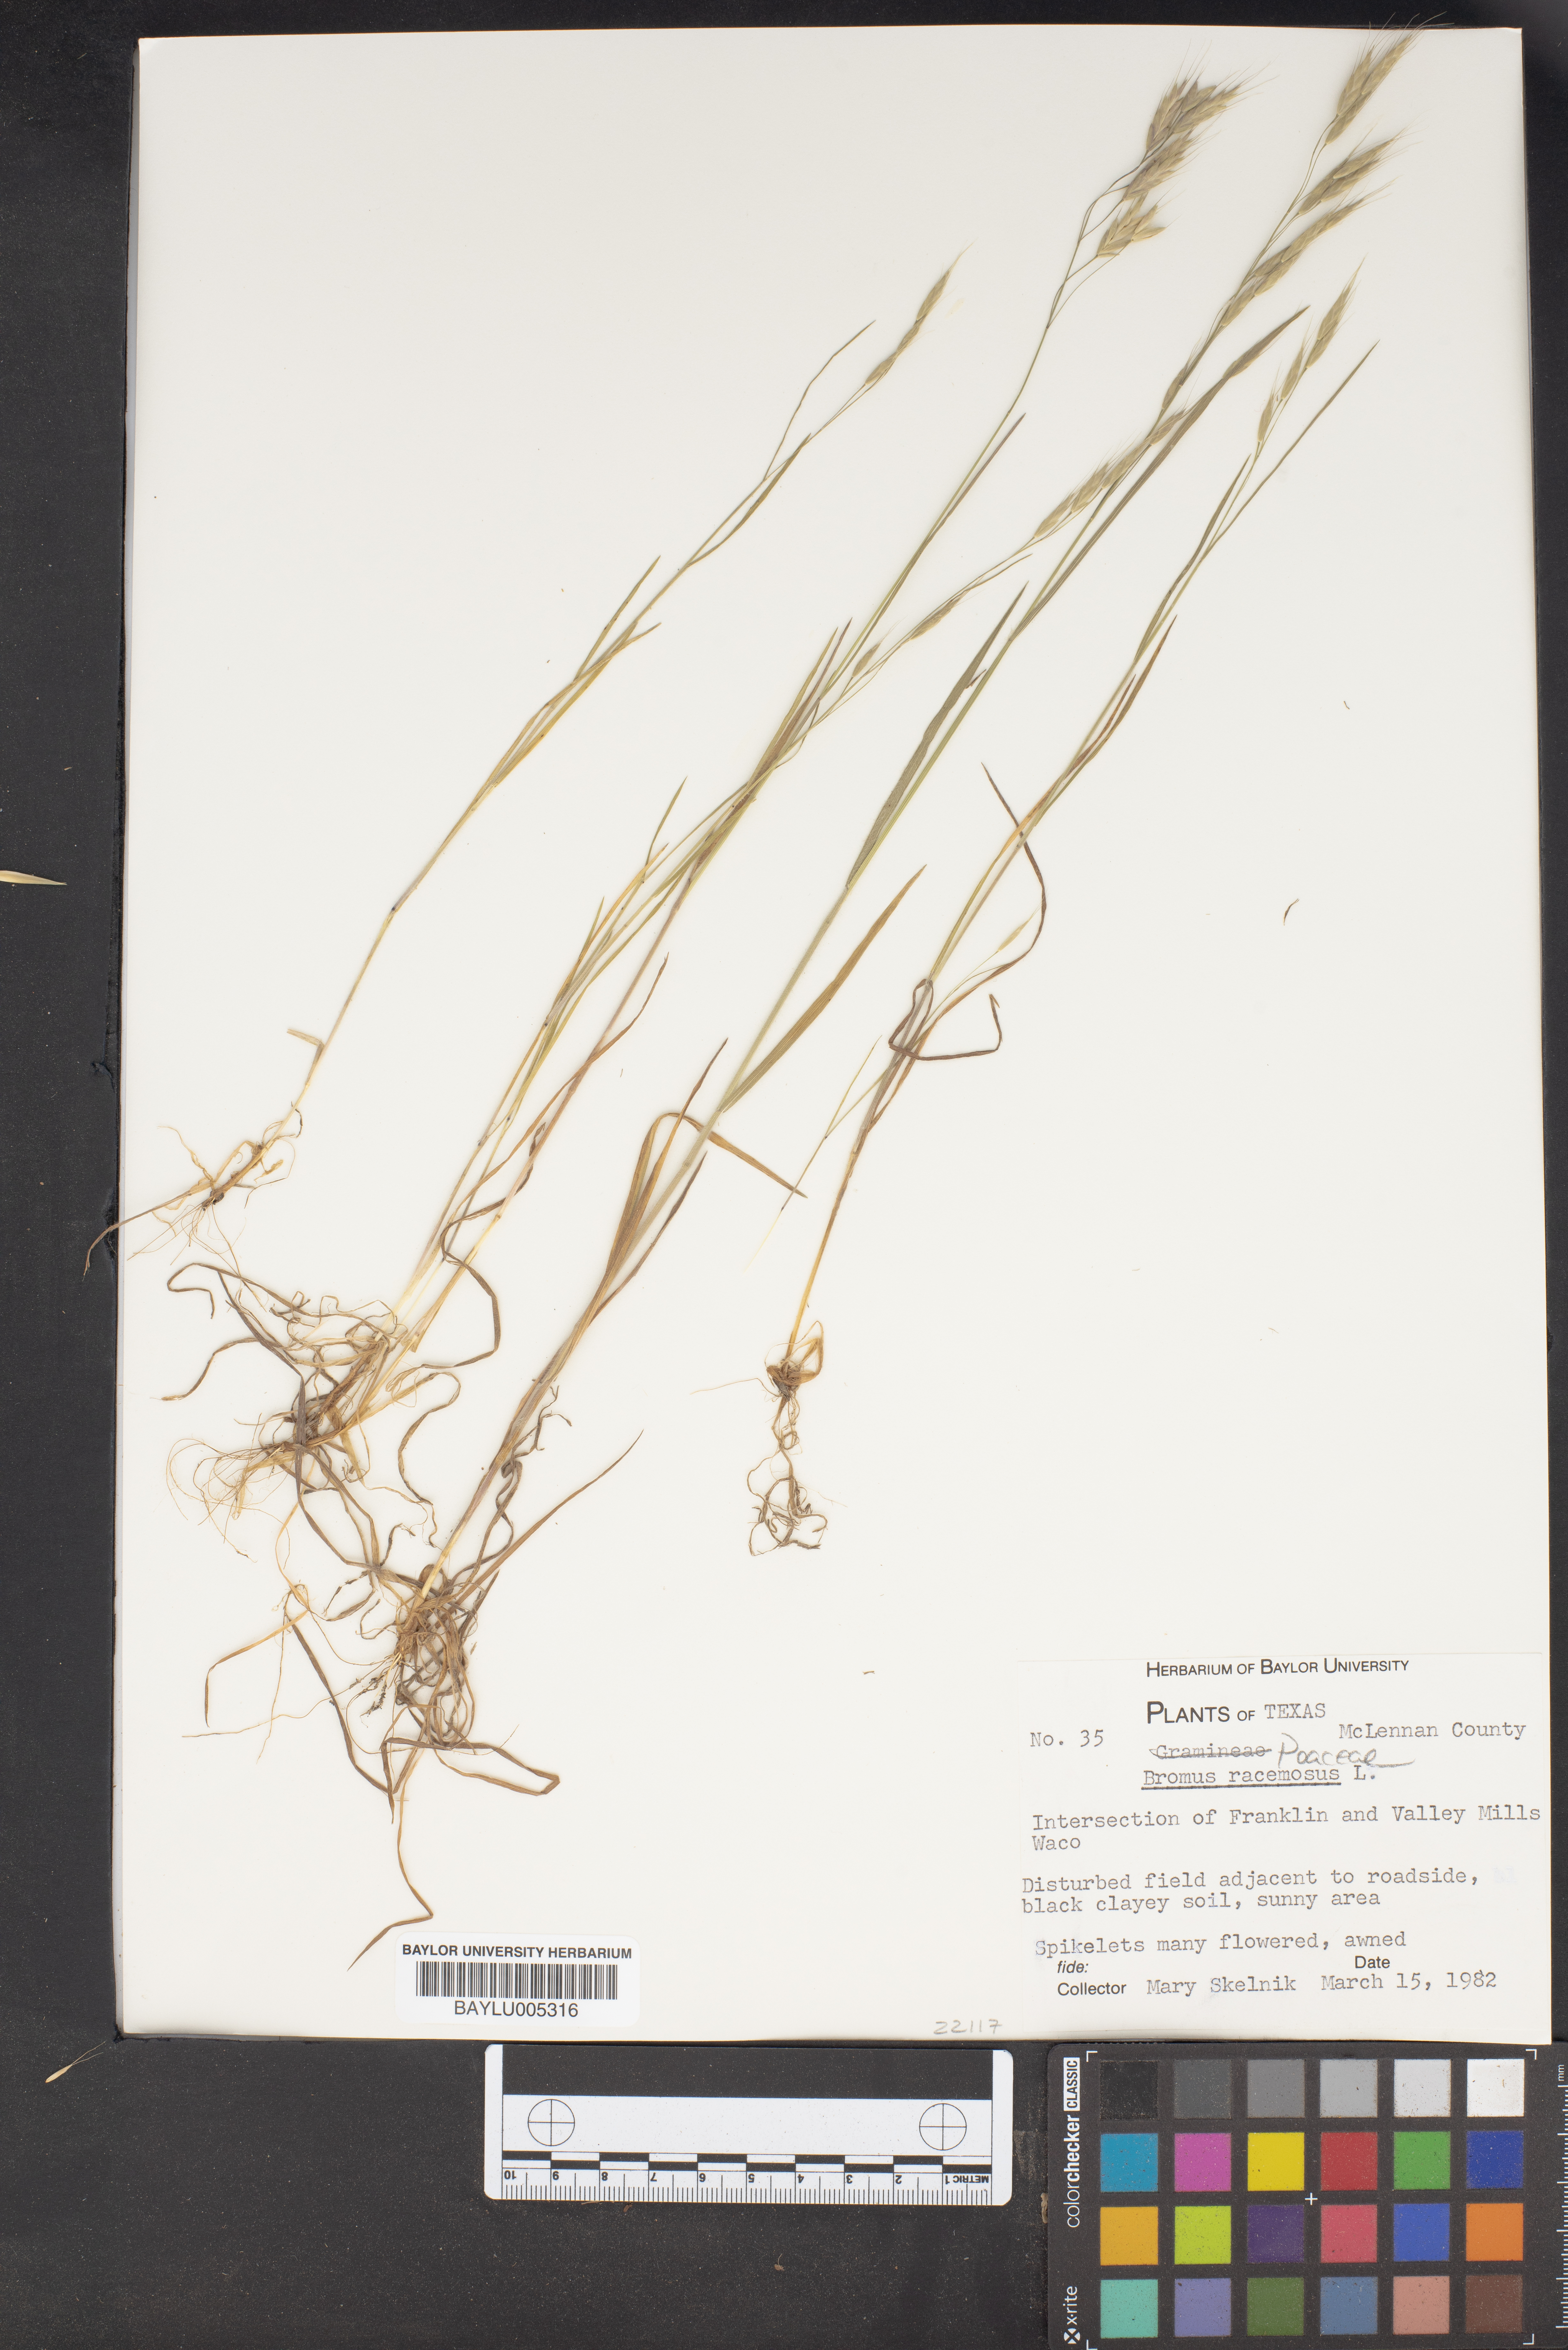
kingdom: Plantae
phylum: Tracheophyta
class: Liliopsida
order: Poales
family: Poaceae
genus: Bromus
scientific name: Bromus racemosus
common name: Bald brome
